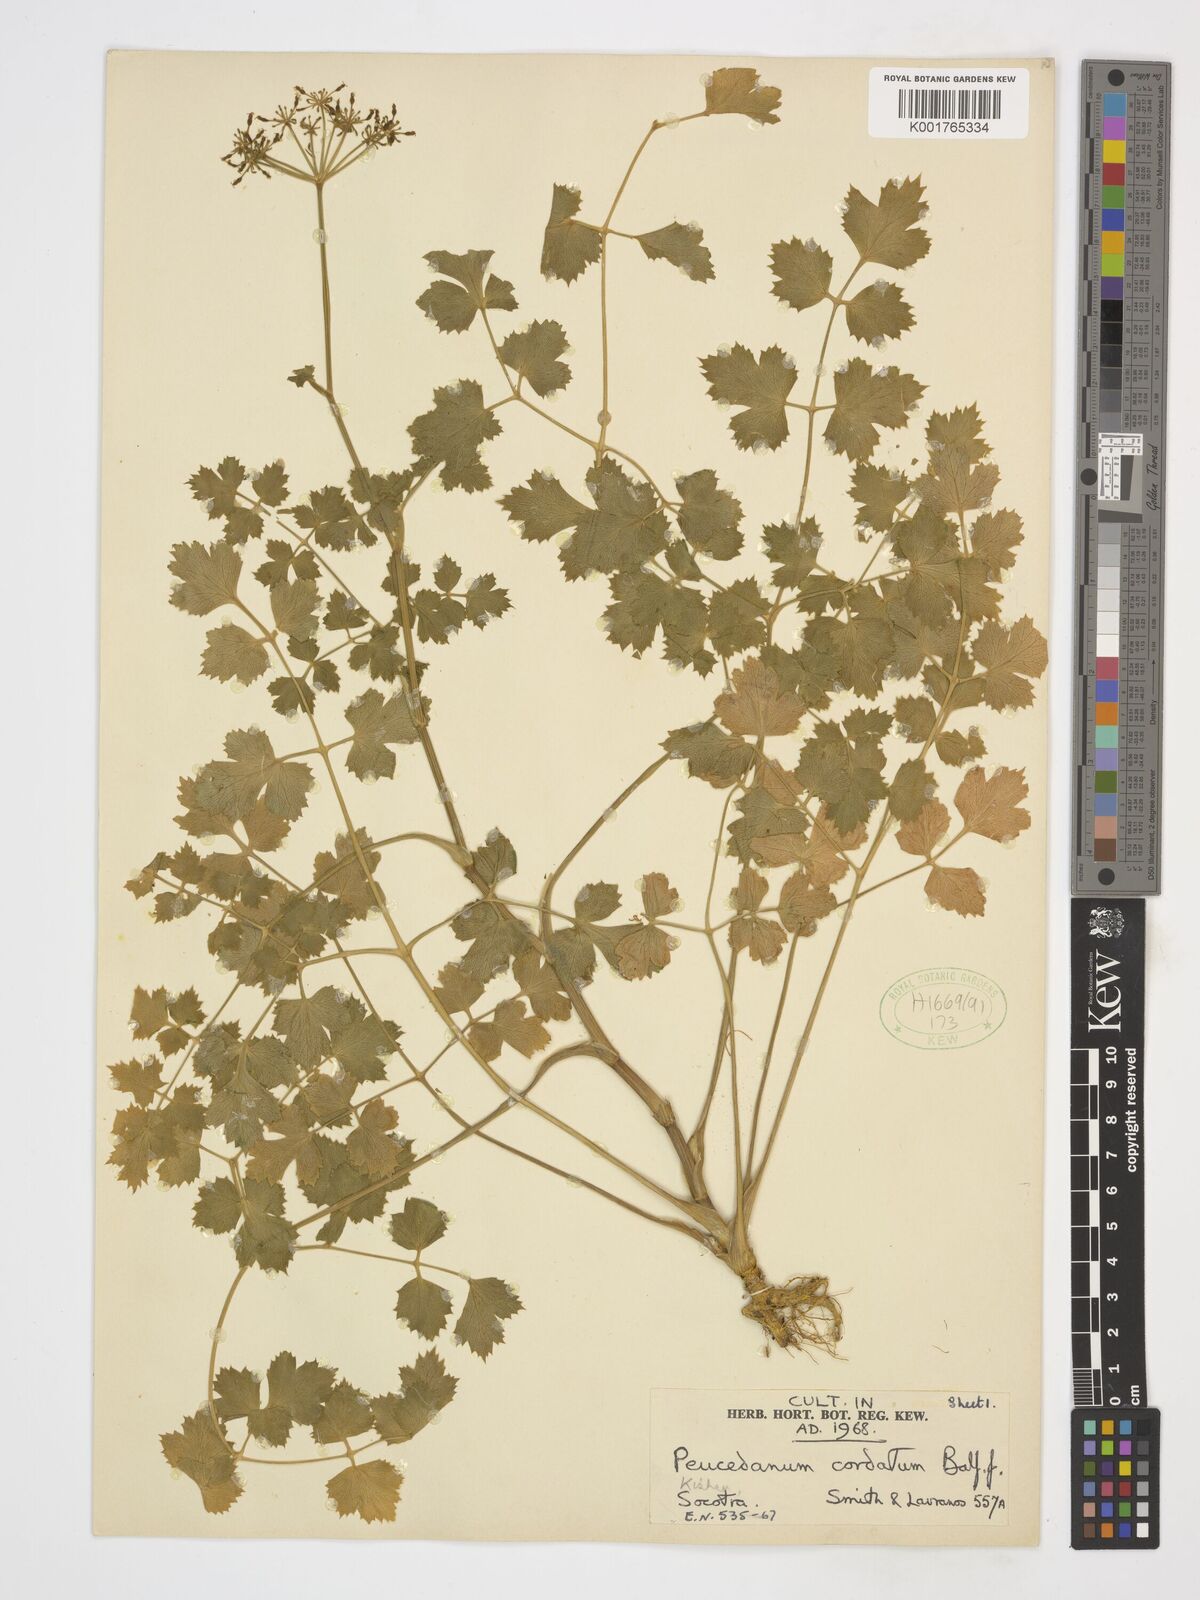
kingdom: Plantae
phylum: Tracheophyta
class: Magnoliopsida
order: Apiales
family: Apiaceae
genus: Rughidia
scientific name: Rughidia cordata
